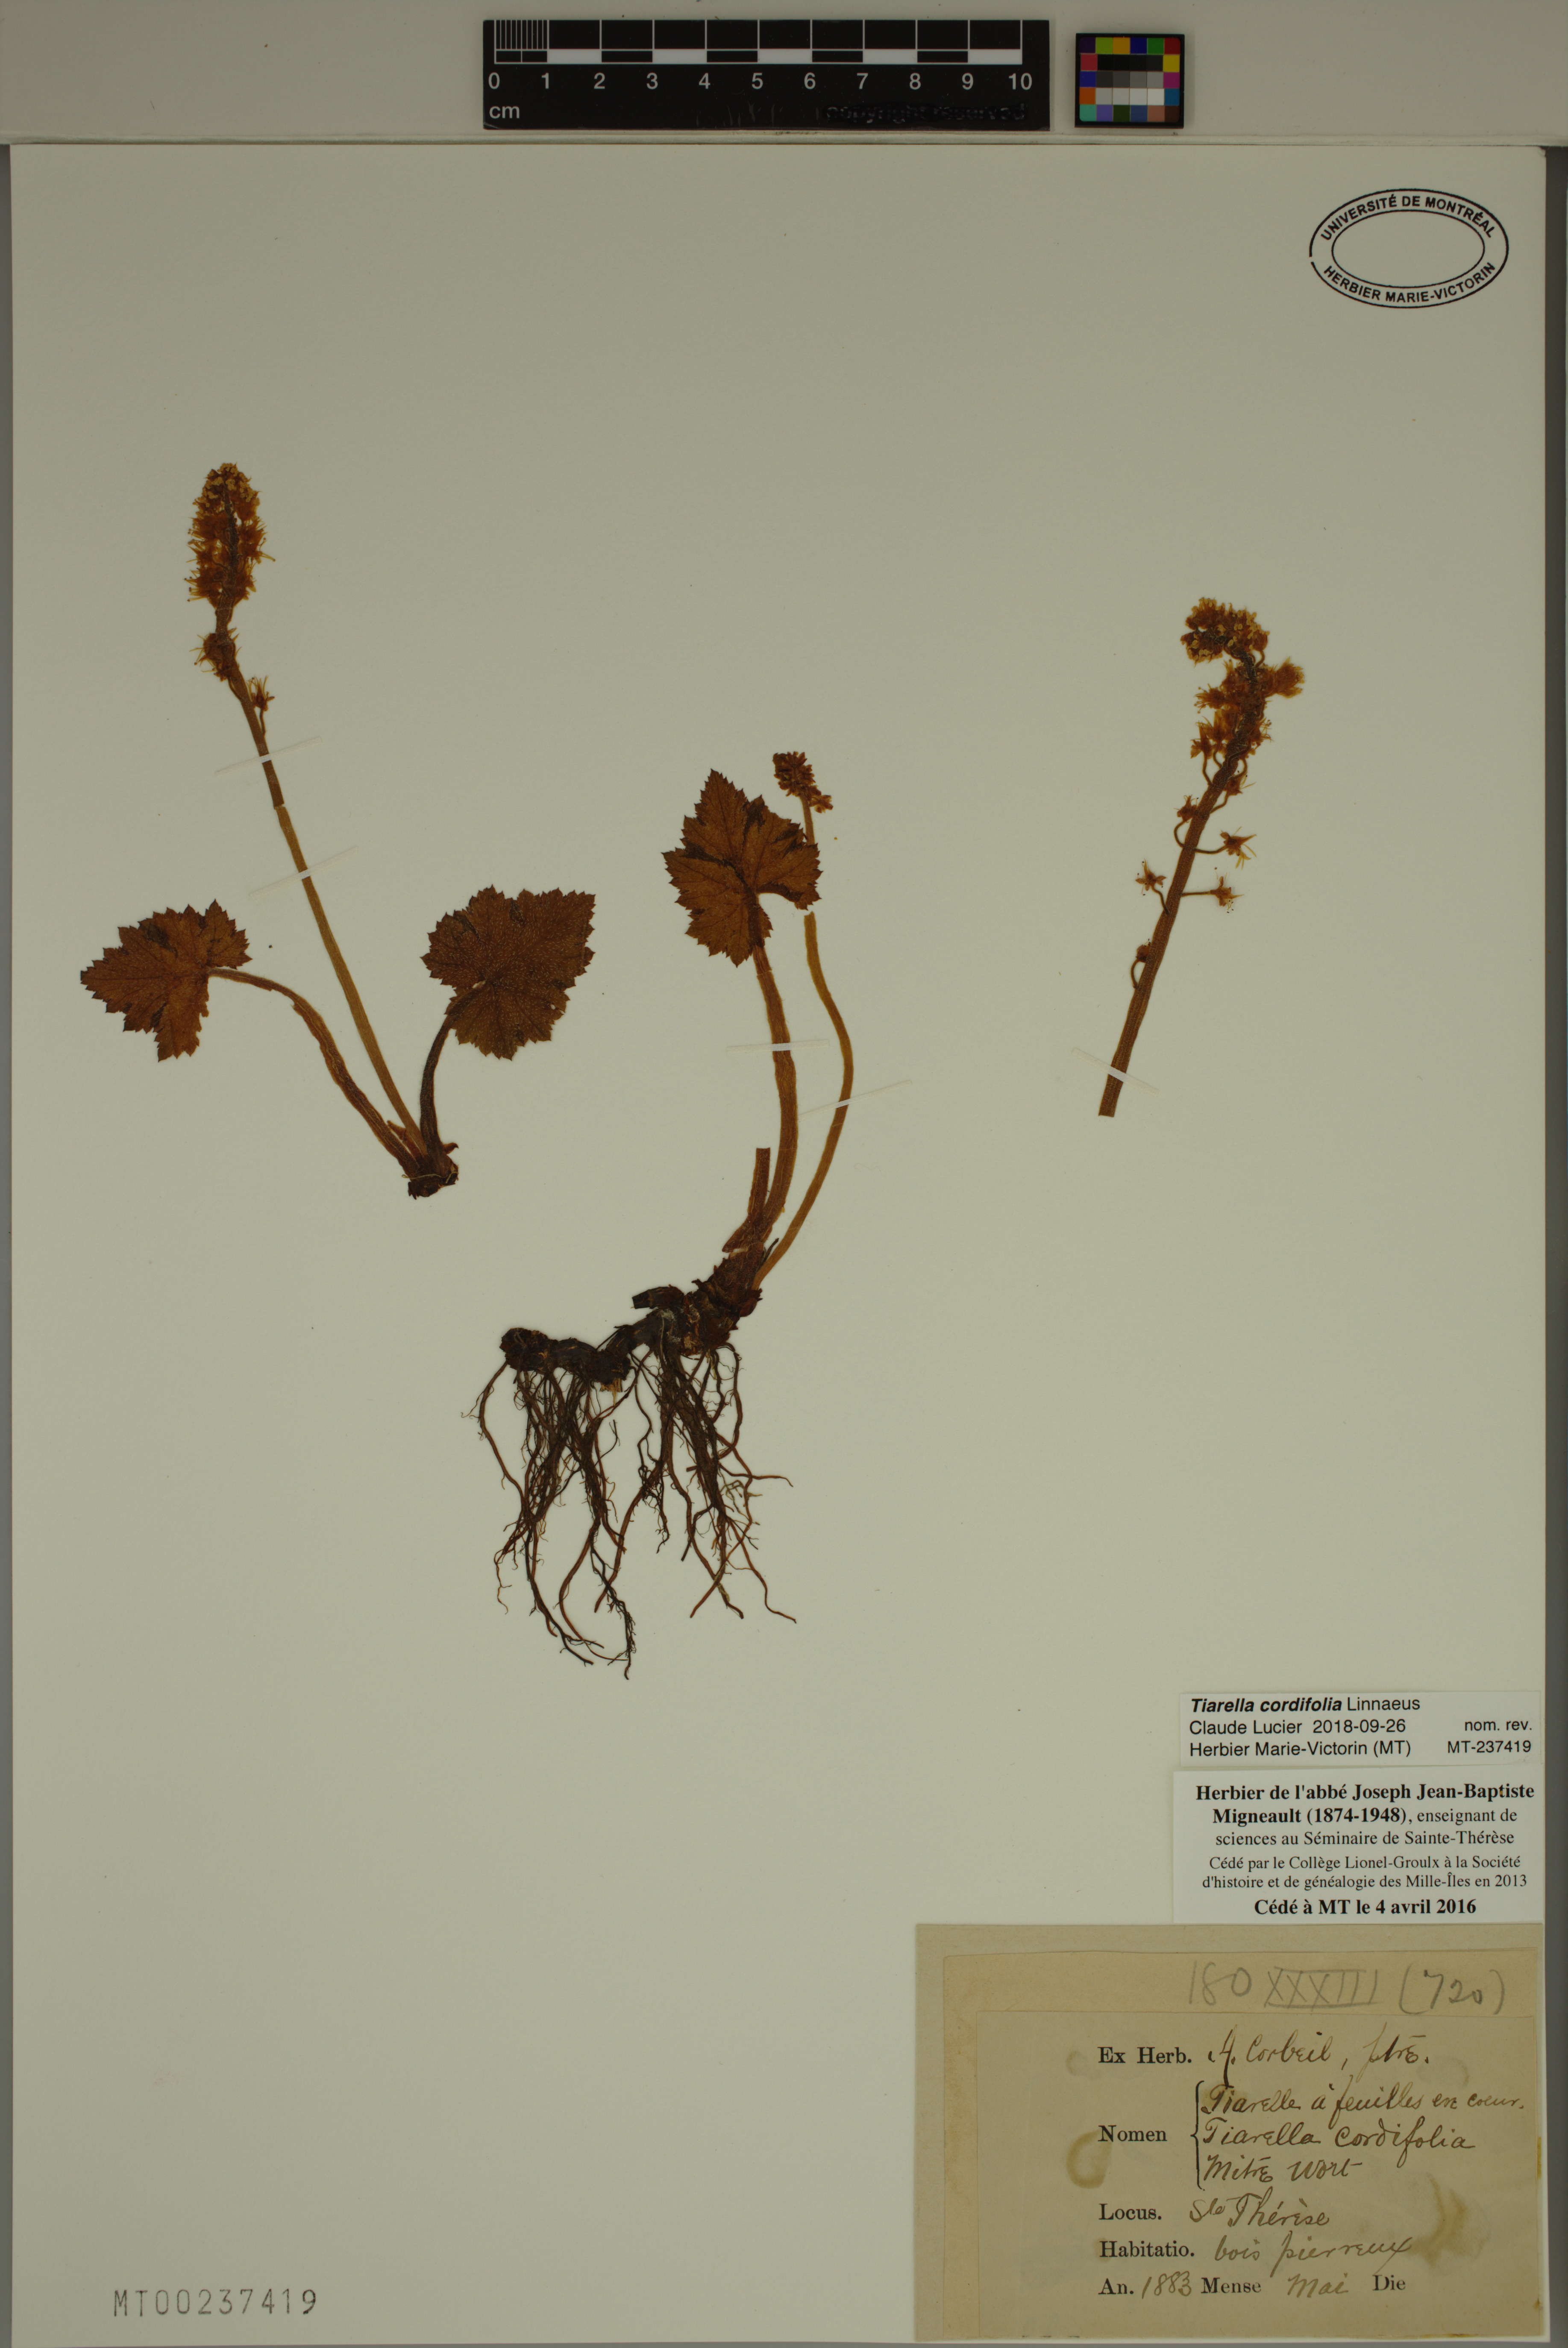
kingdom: Plantae
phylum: Tracheophyta
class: Magnoliopsida
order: Saxifragales
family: Saxifragaceae
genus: Tiarella
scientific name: Tiarella cordifolia
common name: Foamflower
